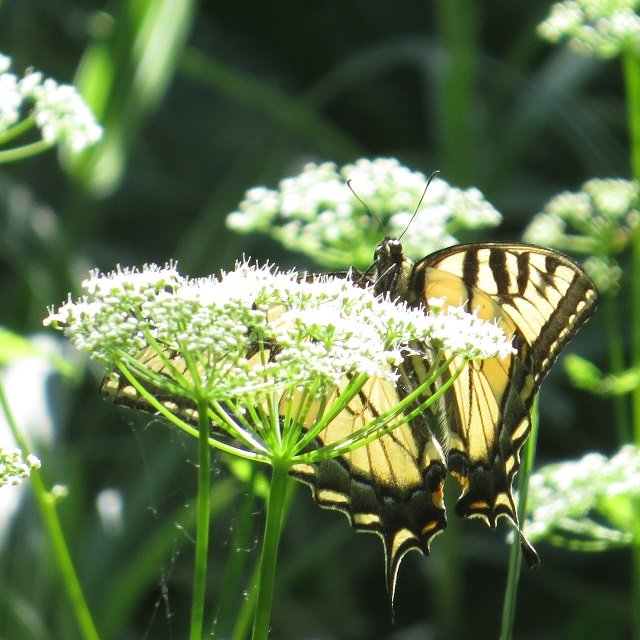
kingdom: Animalia
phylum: Arthropoda
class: Insecta
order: Lepidoptera
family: Papilionidae
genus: Pterourus
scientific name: Pterourus glaucus
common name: Eastern Tiger Swallowtail
